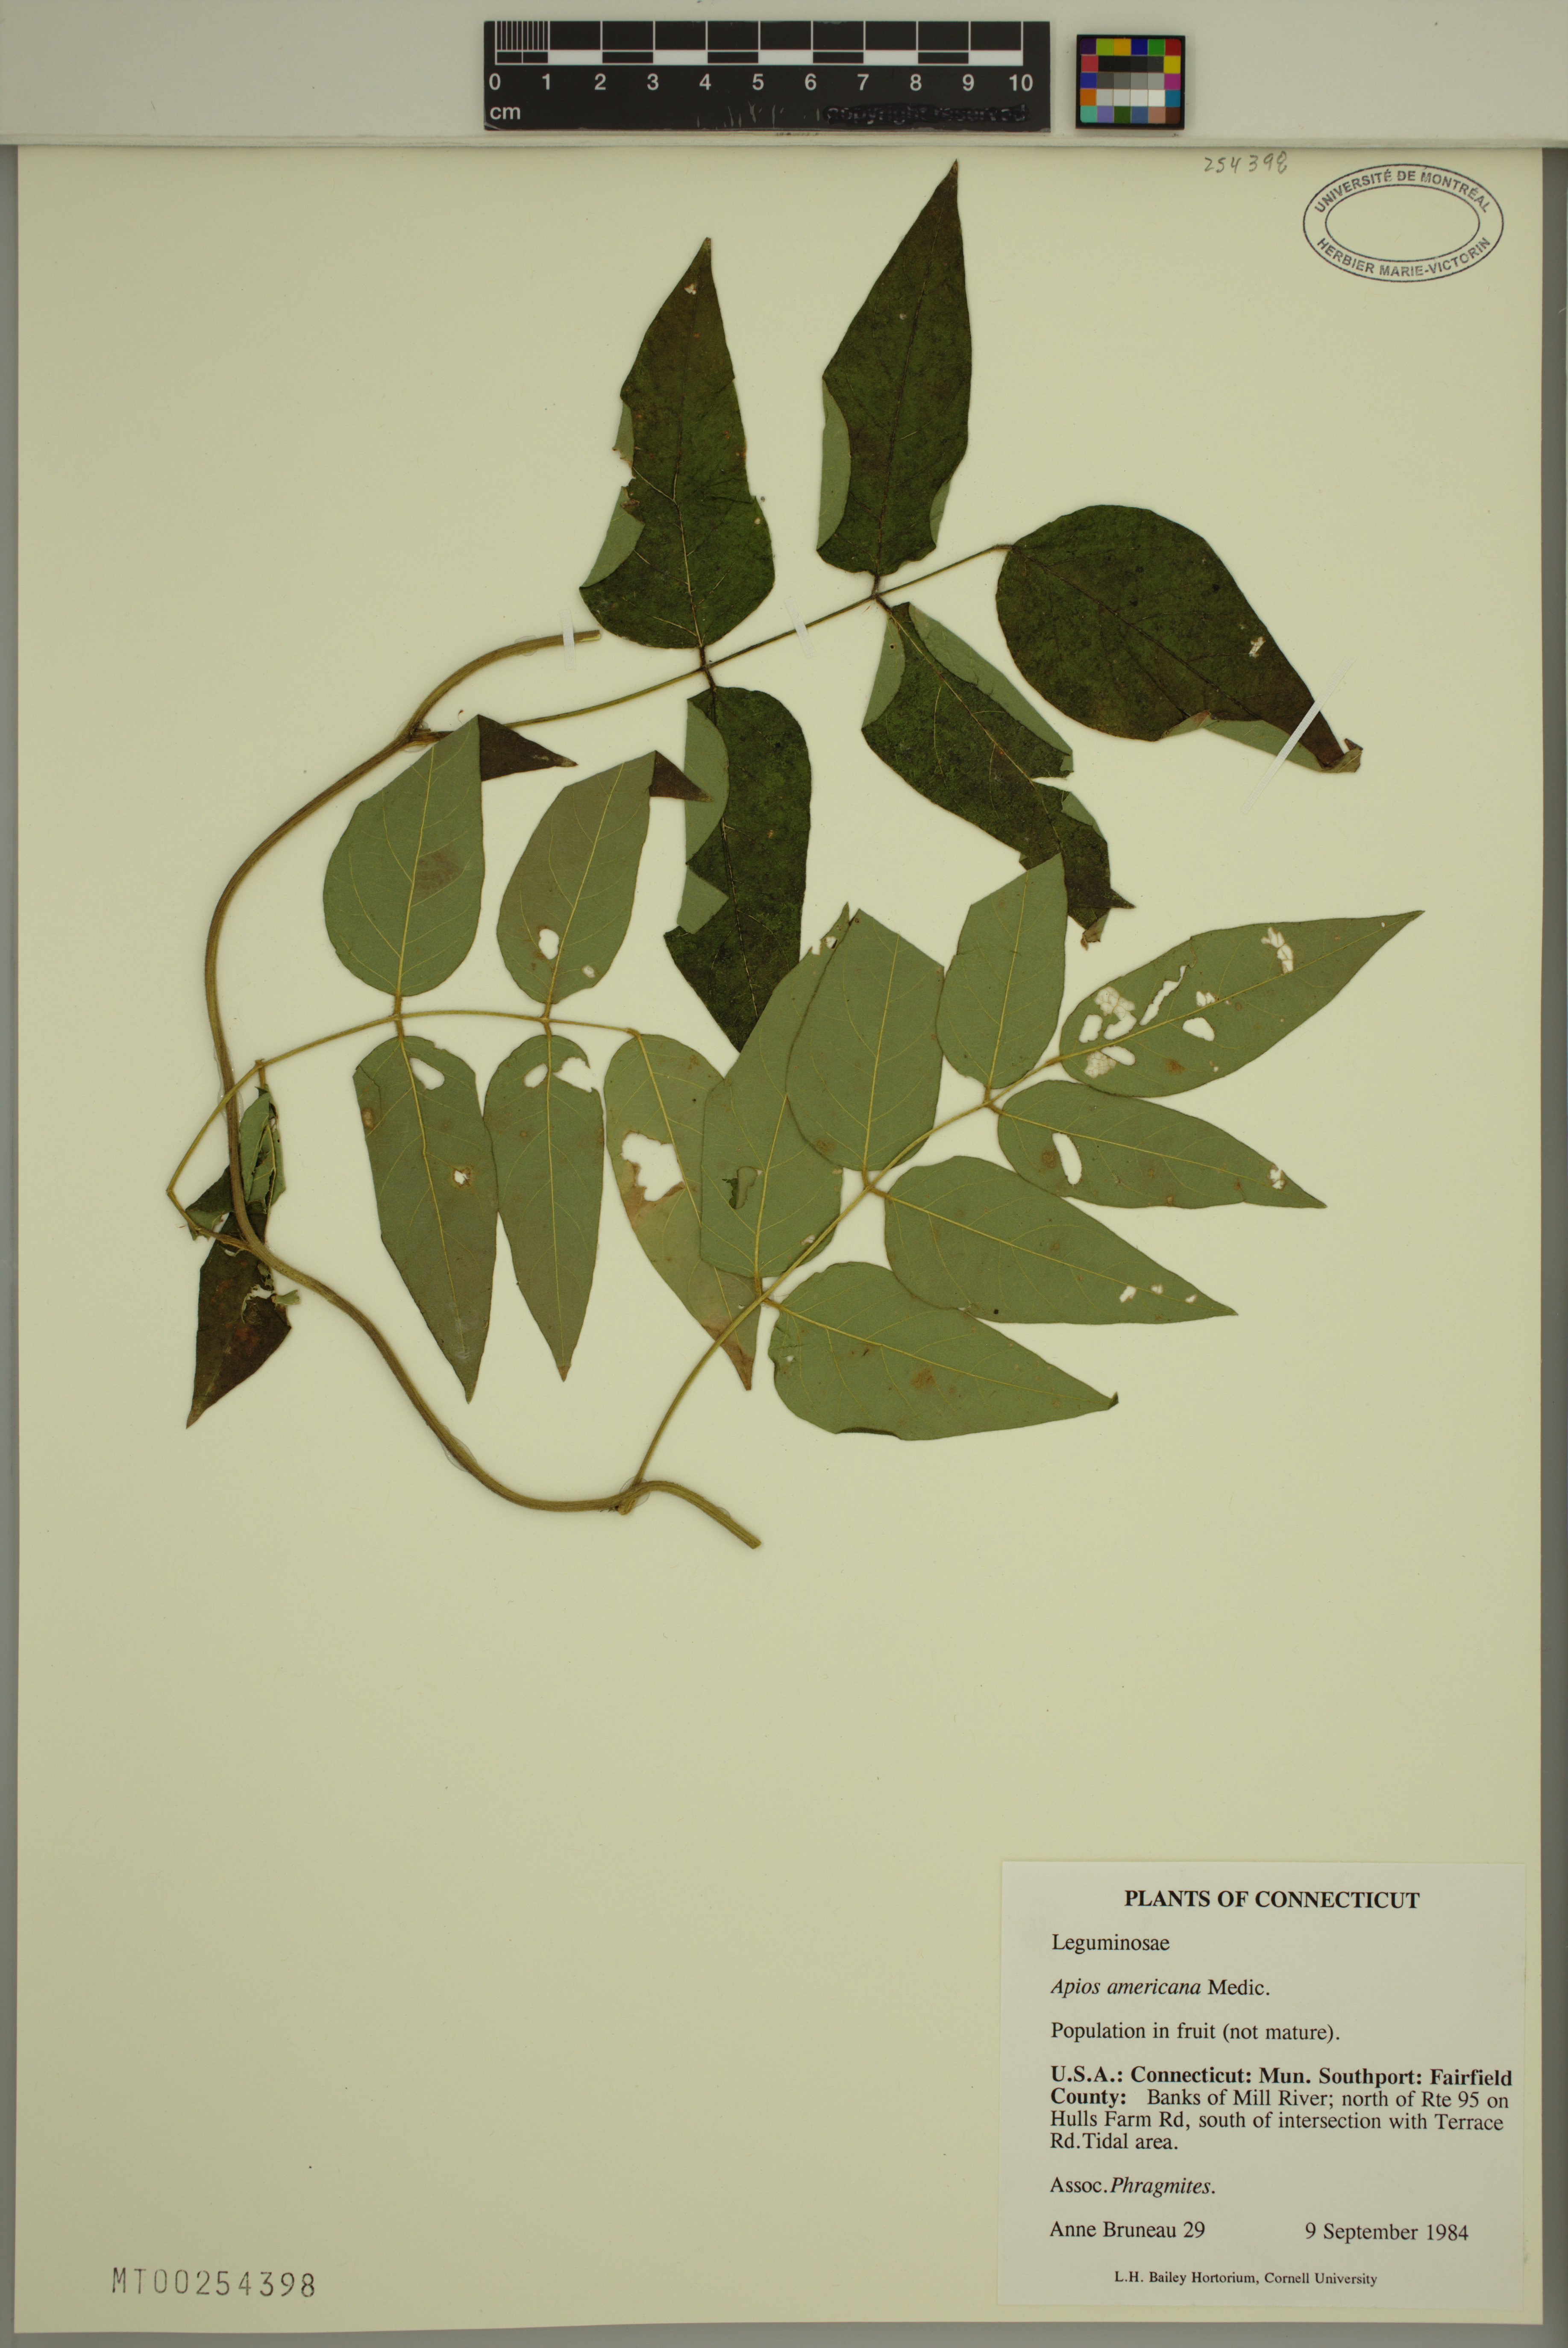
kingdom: Plantae
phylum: Tracheophyta
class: Magnoliopsida
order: Fabales
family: Fabaceae
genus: Apios
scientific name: Apios americana
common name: American potato-bean
